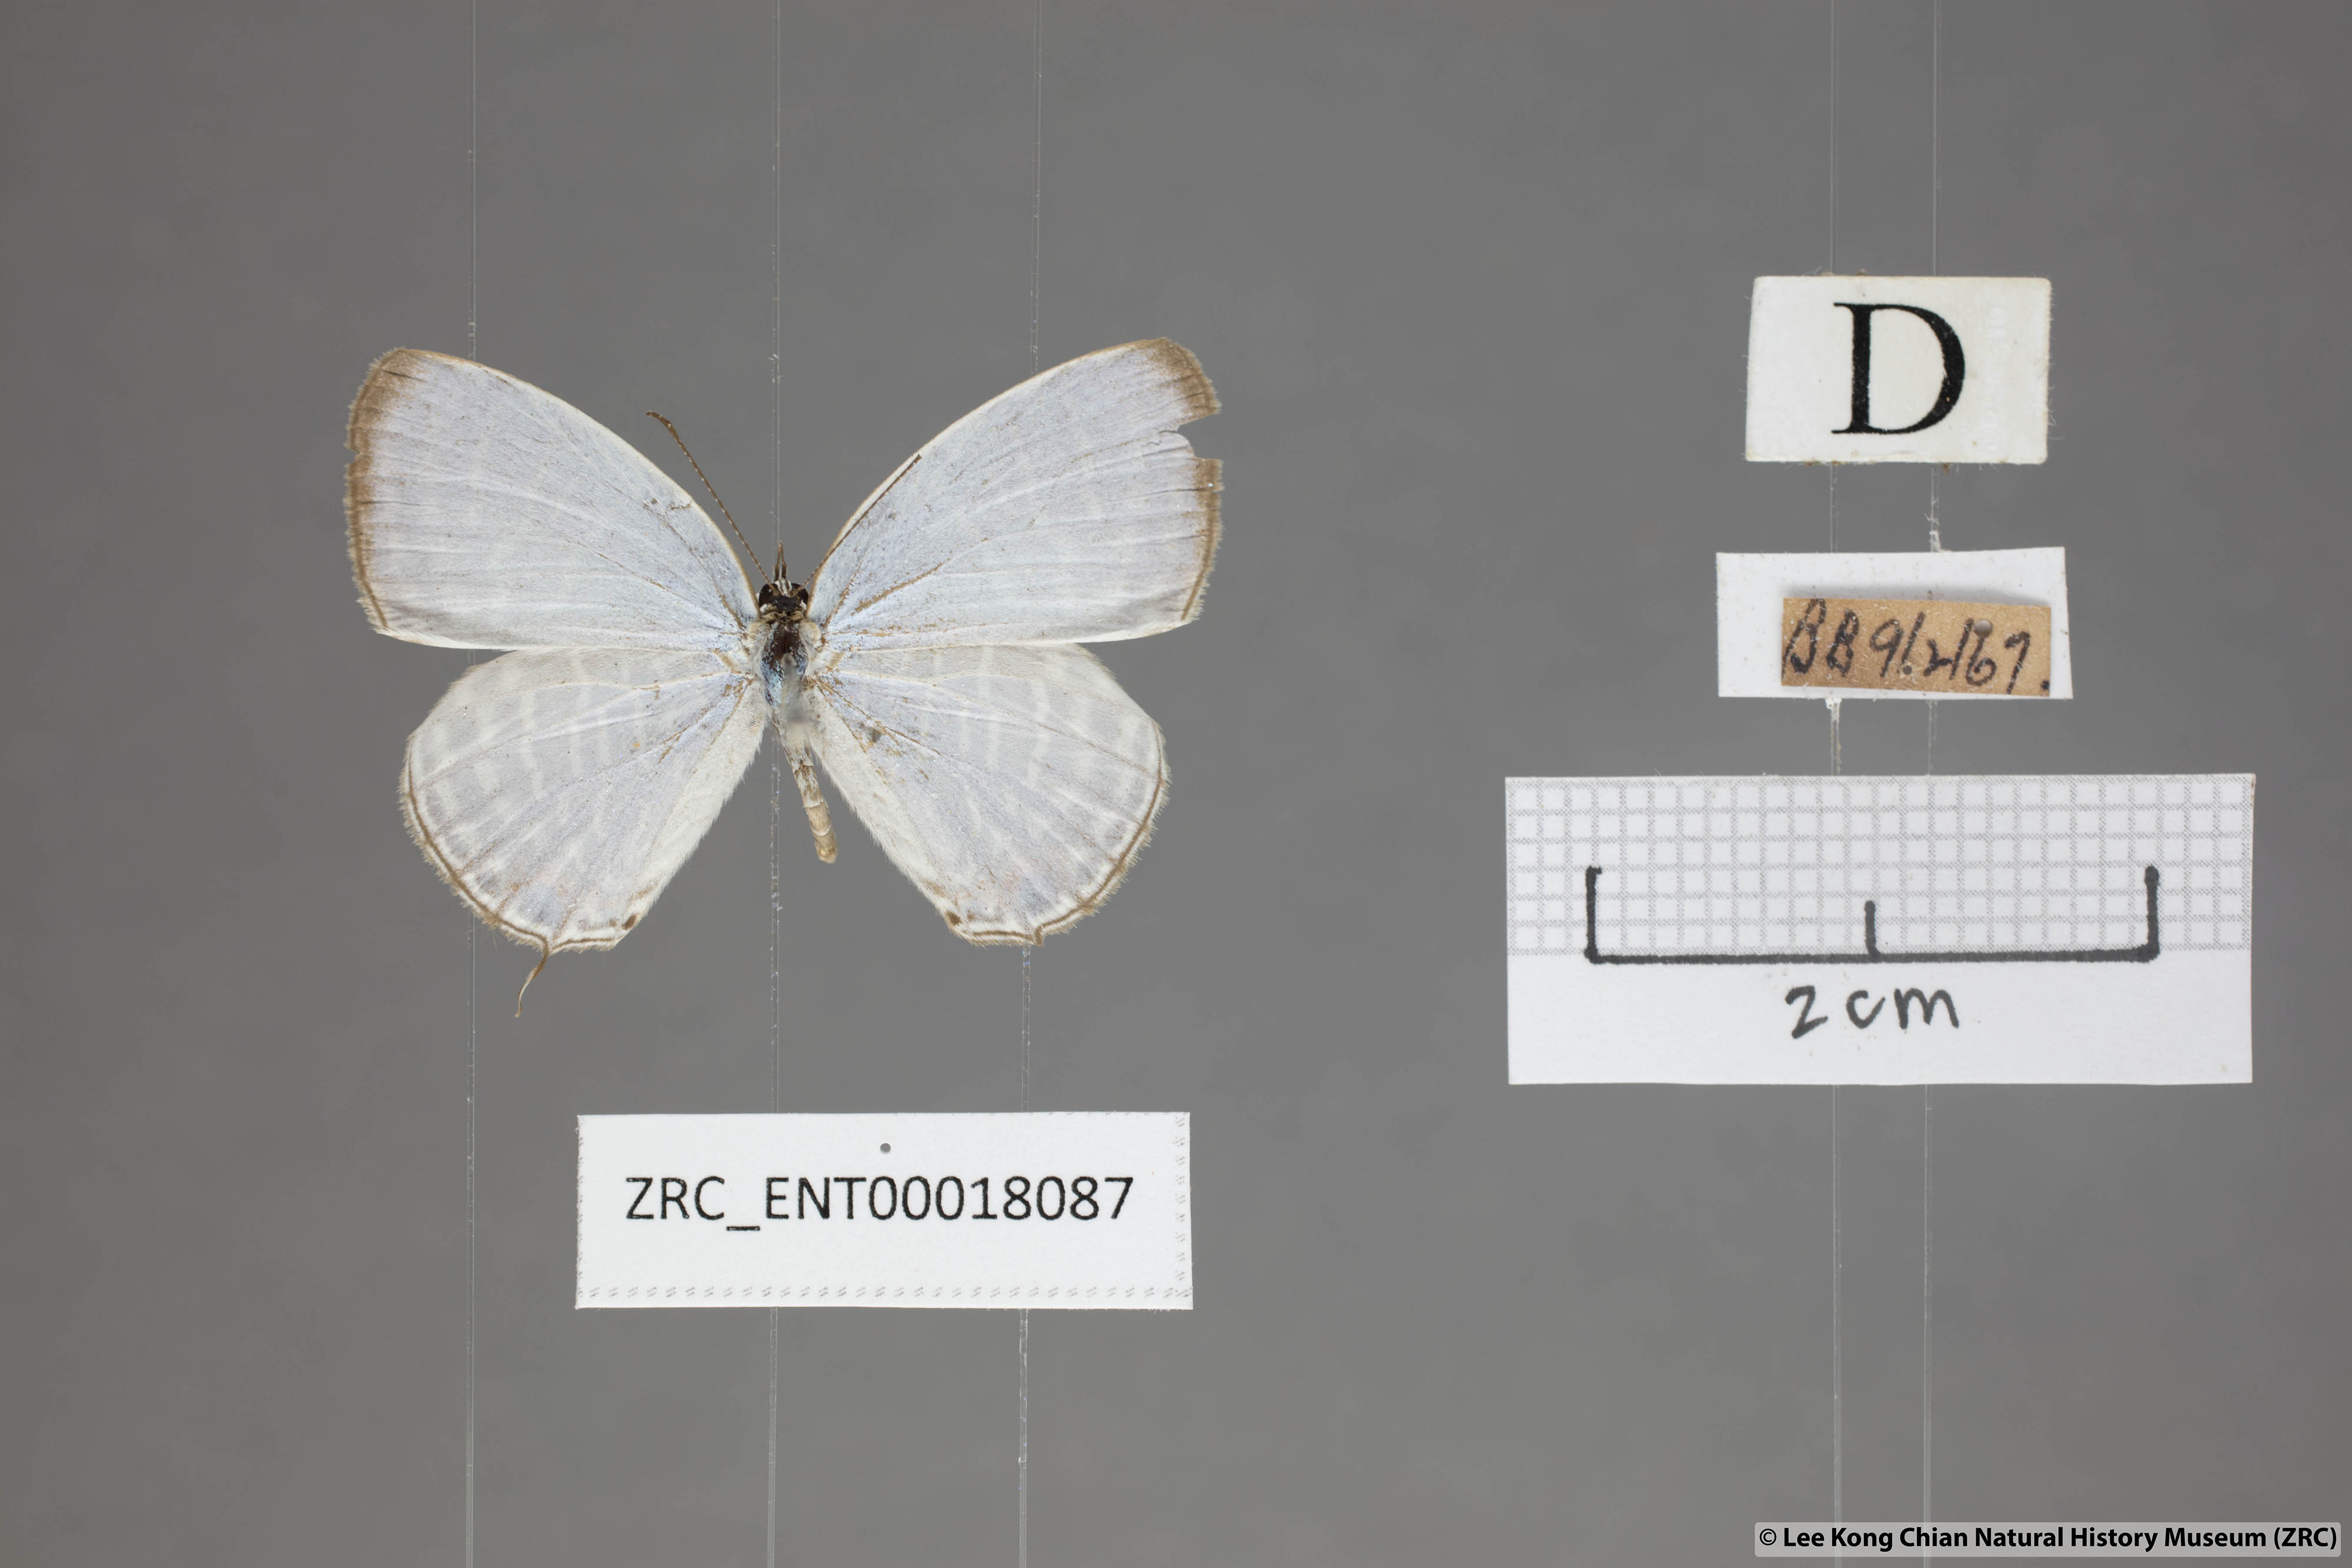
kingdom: Animalia
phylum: Arthropoda
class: Insecta
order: Lepidoptera
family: Lycaenidae
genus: Jamides
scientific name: Jamides celeno
